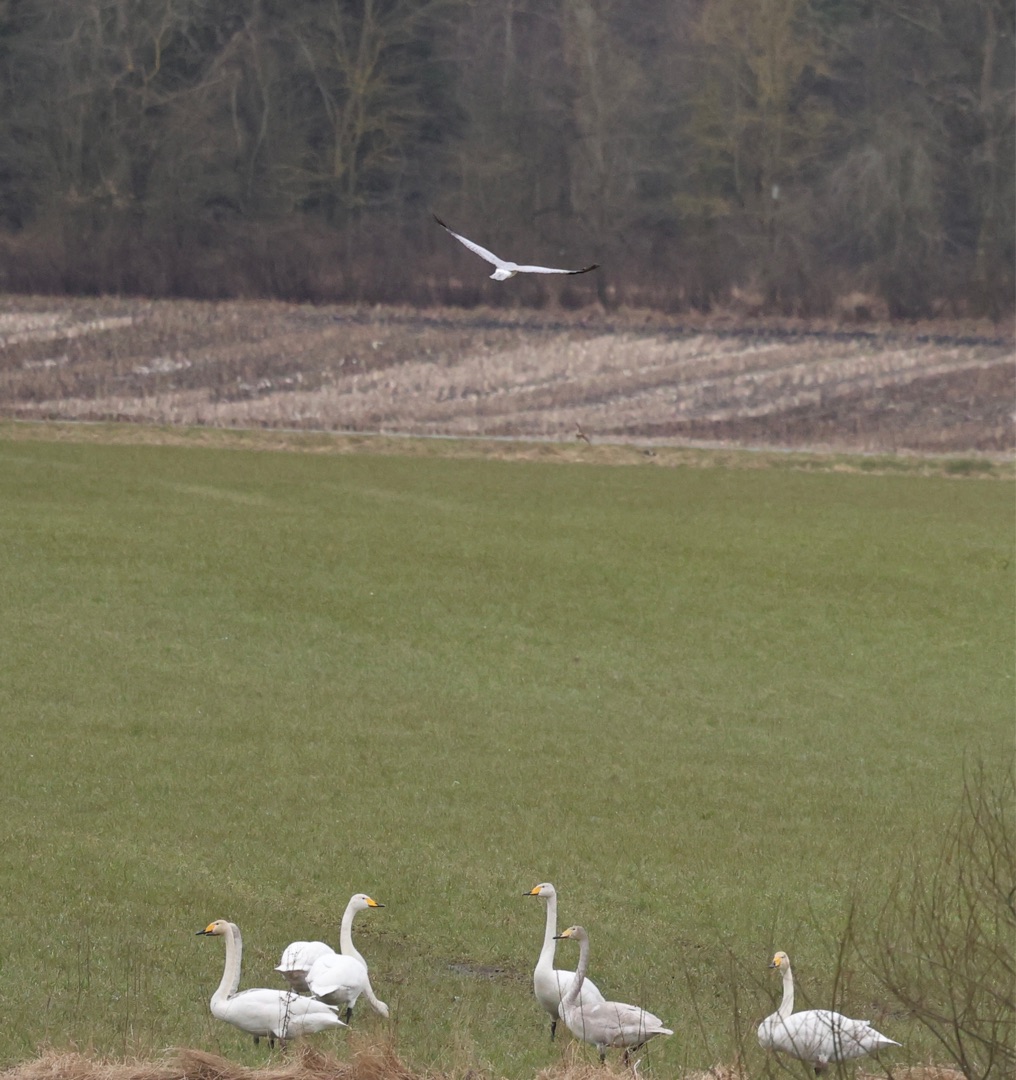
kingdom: Animalia
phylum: Chordata
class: Aves
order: Anseriformes
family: Anatidae
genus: Cygnus
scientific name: Cygnus cygnus
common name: Sangsvane
